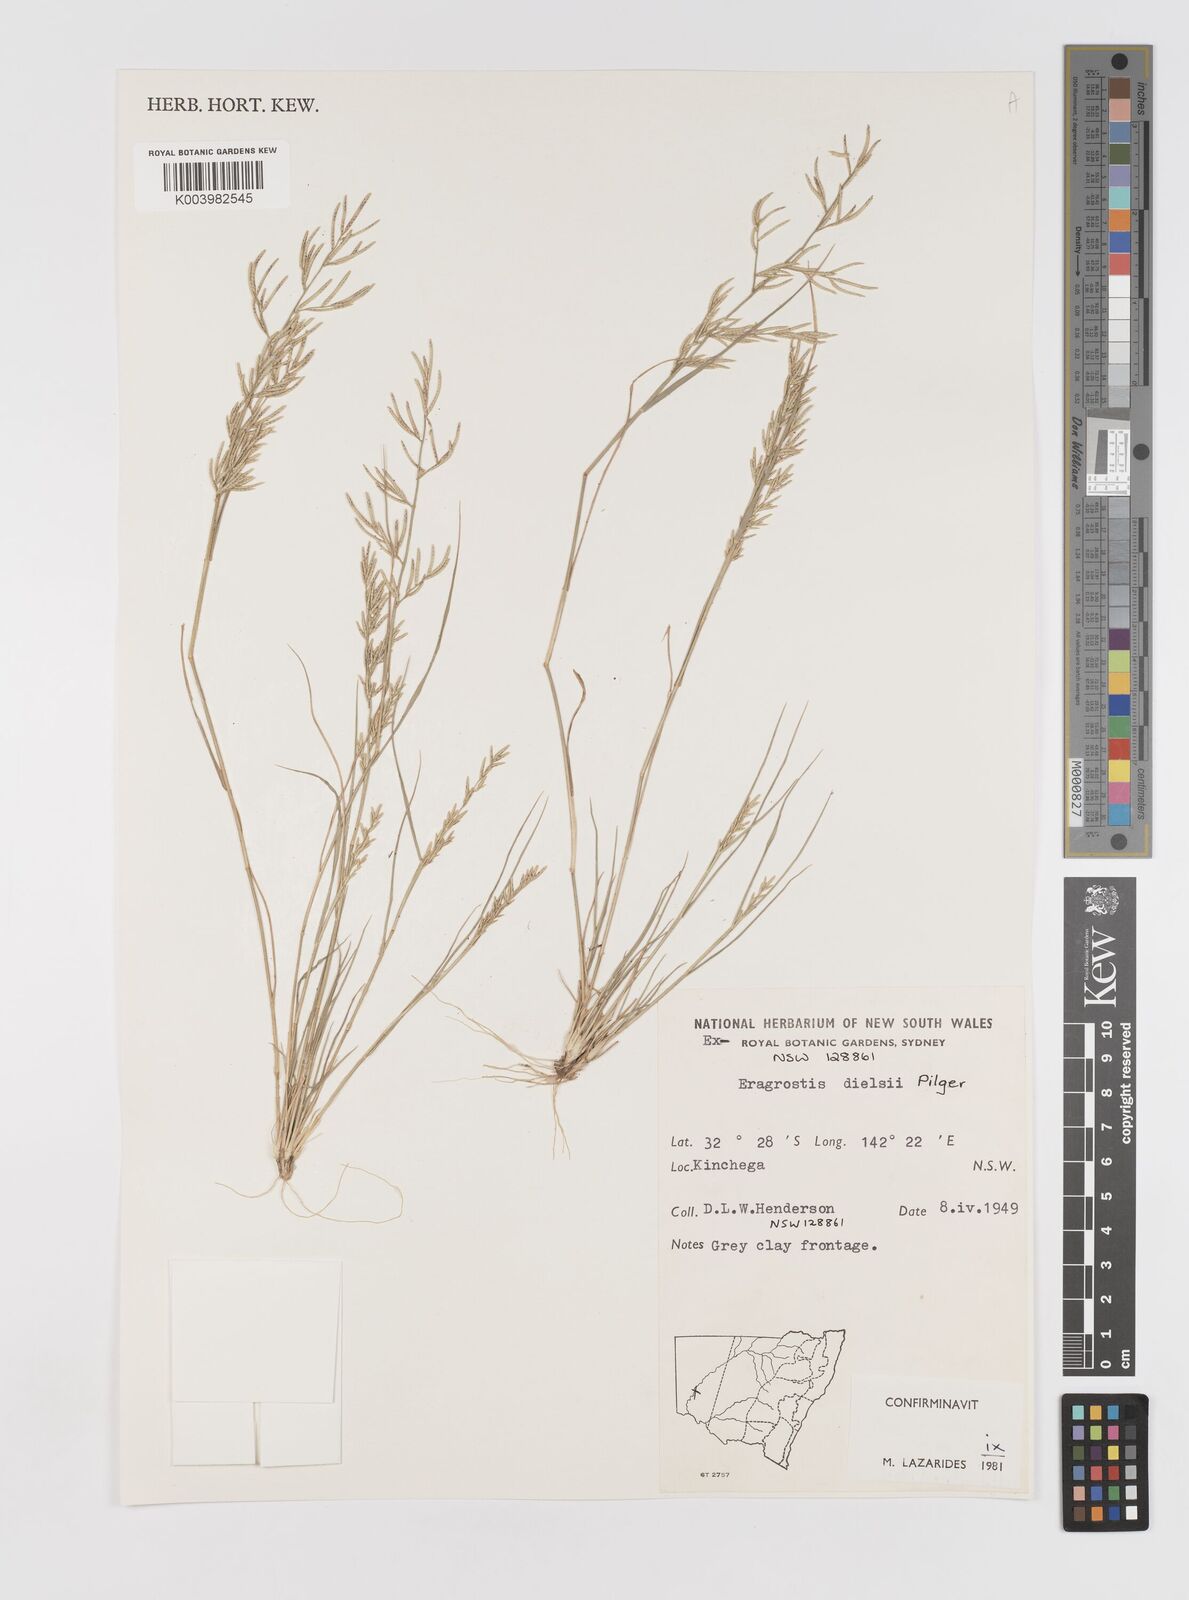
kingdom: Plantae
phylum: Tracheophyta
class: Liliopsida
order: Poales
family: Poaceae
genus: Eragrostis
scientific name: Eragrostis dielsii
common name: Lovegrass
